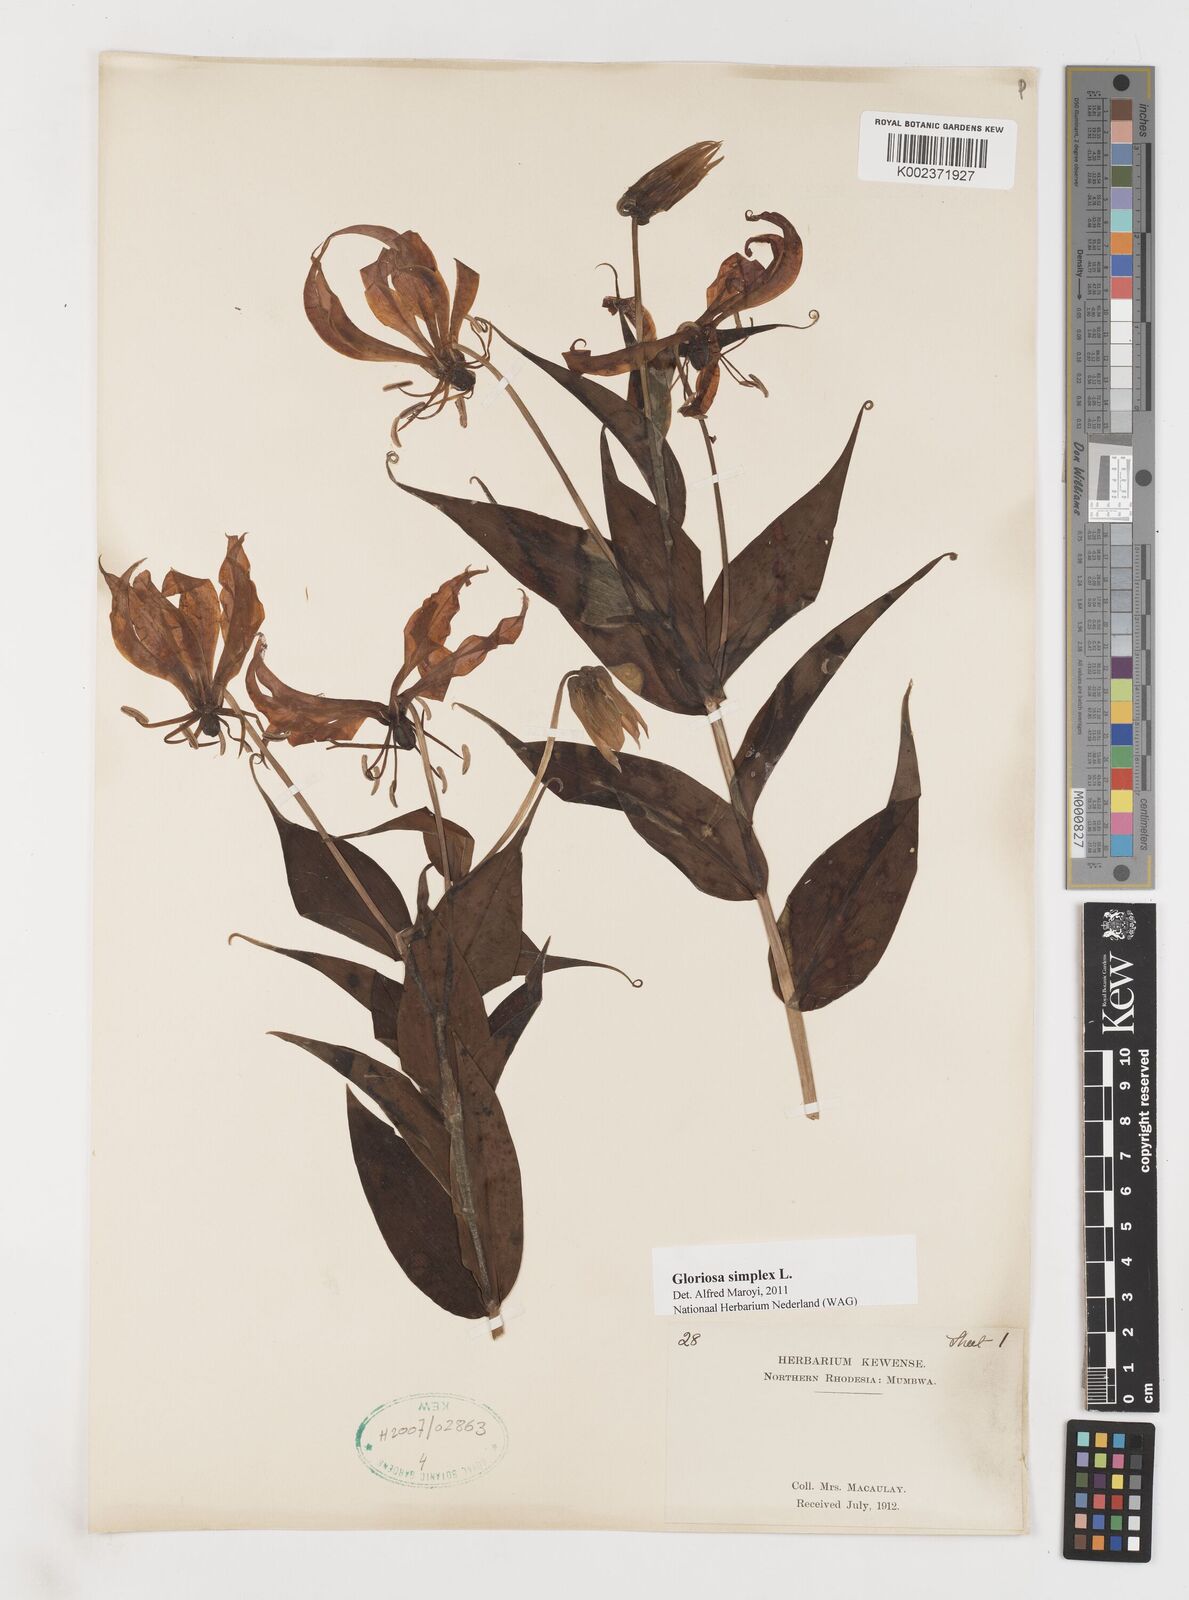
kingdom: Plantae
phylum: Tracheophyta
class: Liliopsida
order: Liliales
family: Colchicaceae
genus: Gloriosa
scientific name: Gloriosa simplex
